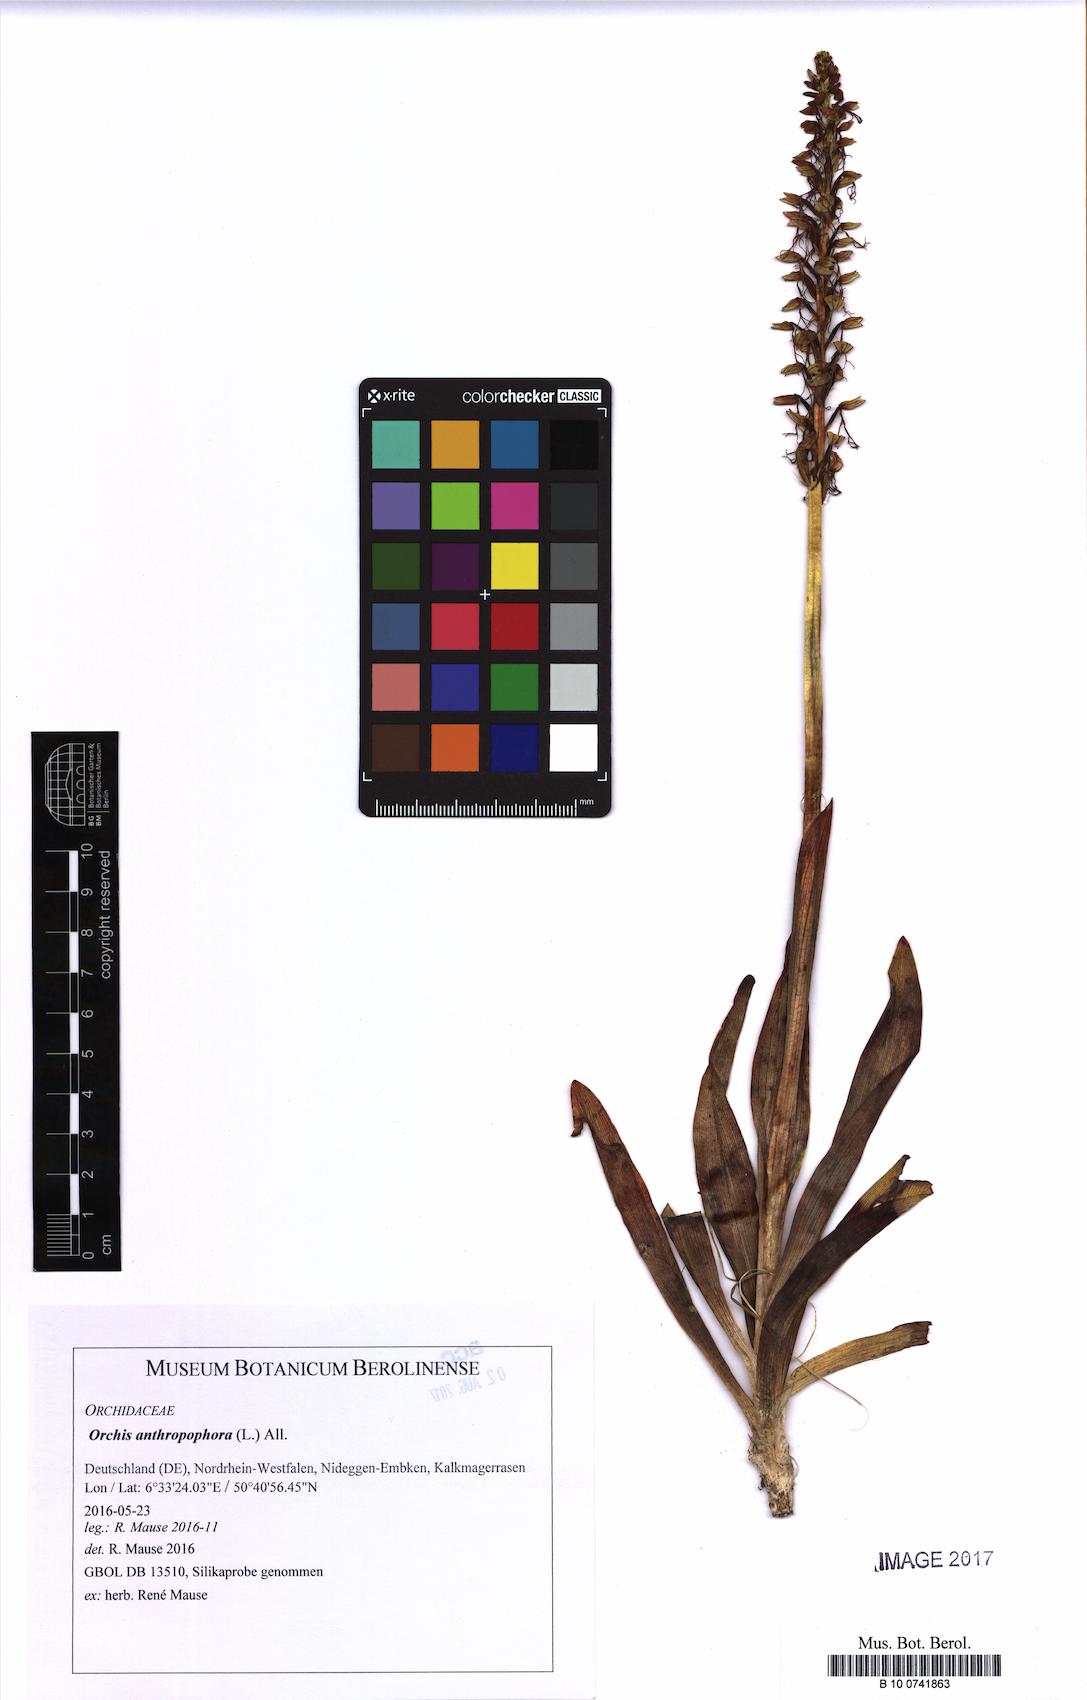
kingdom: Plantae
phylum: Tracheophyta
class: Liliopsida
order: Asparagales
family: Orchidaceae
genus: Orchis
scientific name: Orchis anthropophora
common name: Man orchid
